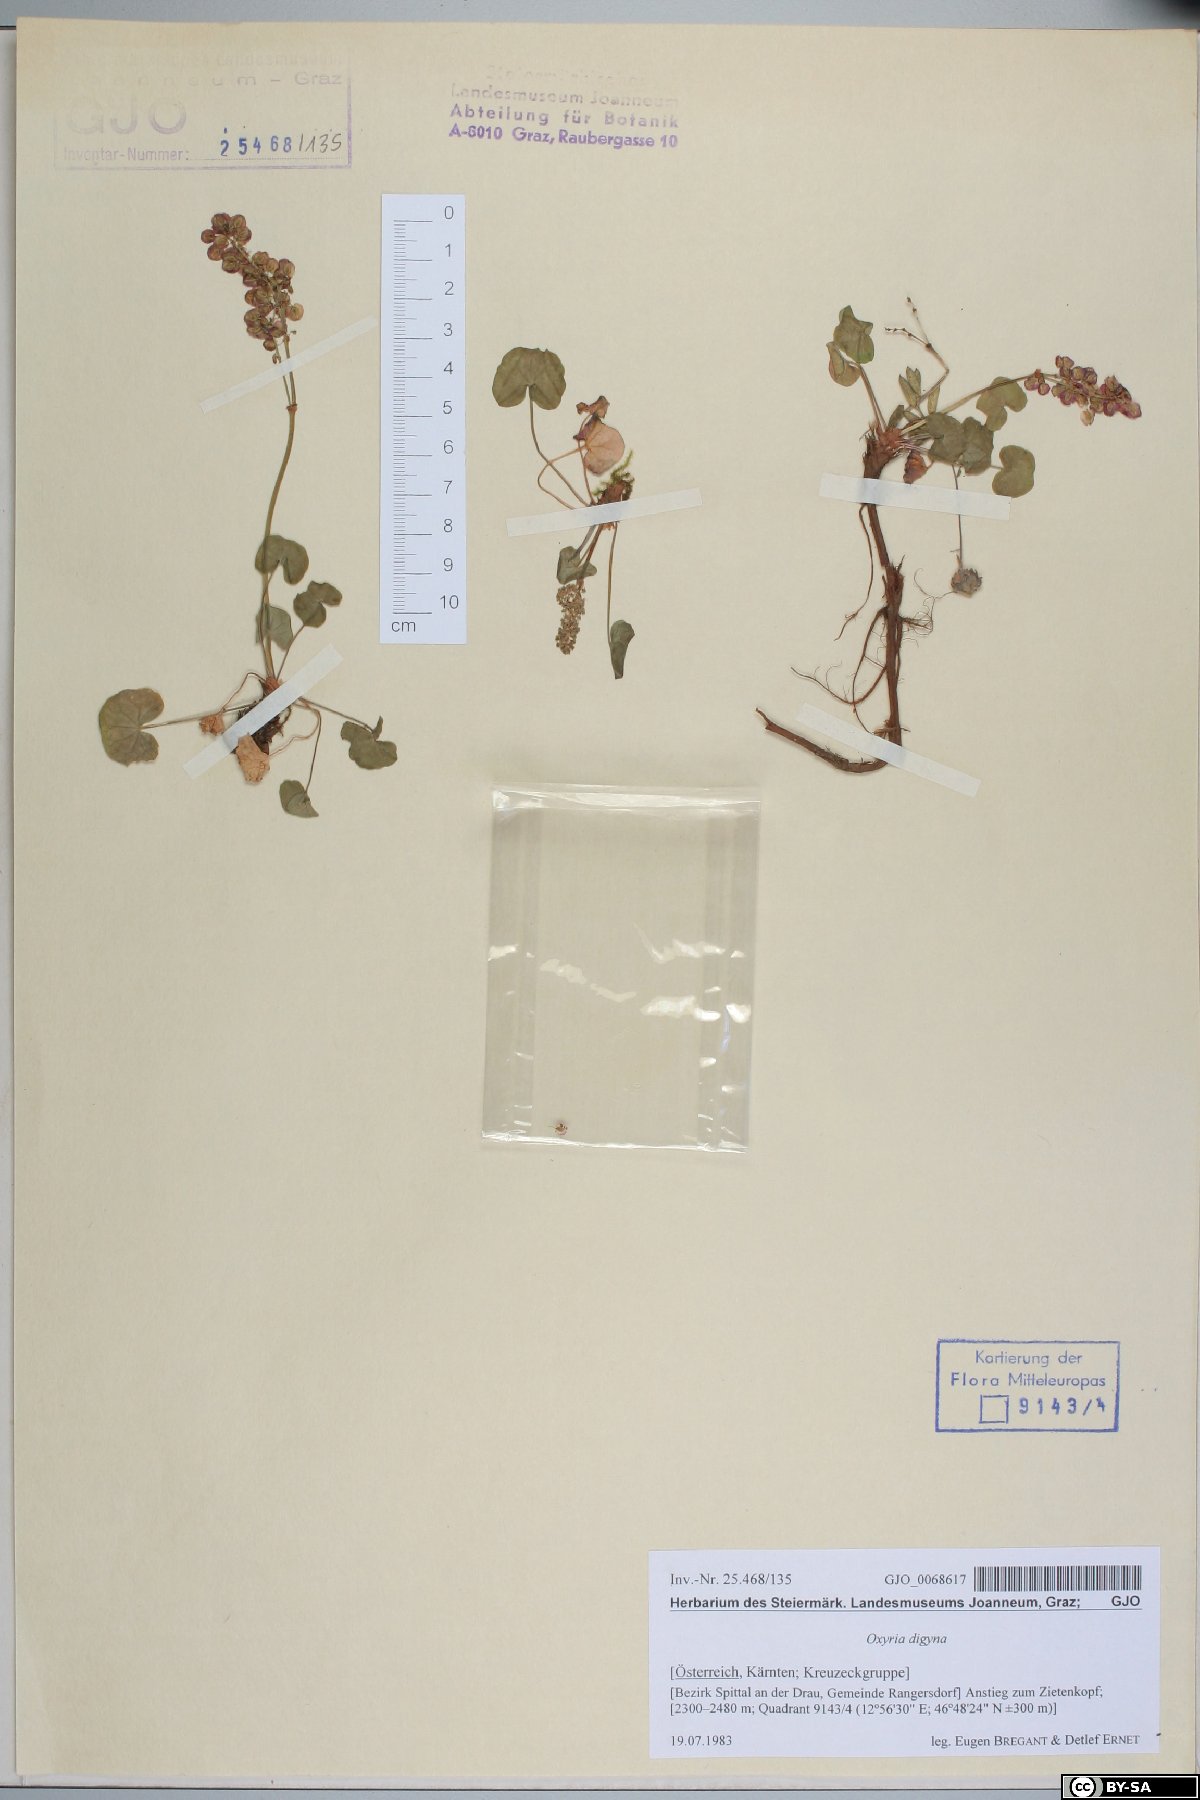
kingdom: Plantae
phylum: Tracheophyta
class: Magnoliopsida
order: Caryophyllales
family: Polygonaceae
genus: Oxyria
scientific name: Oxyria digyna
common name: Alpine mountain-sorrel
